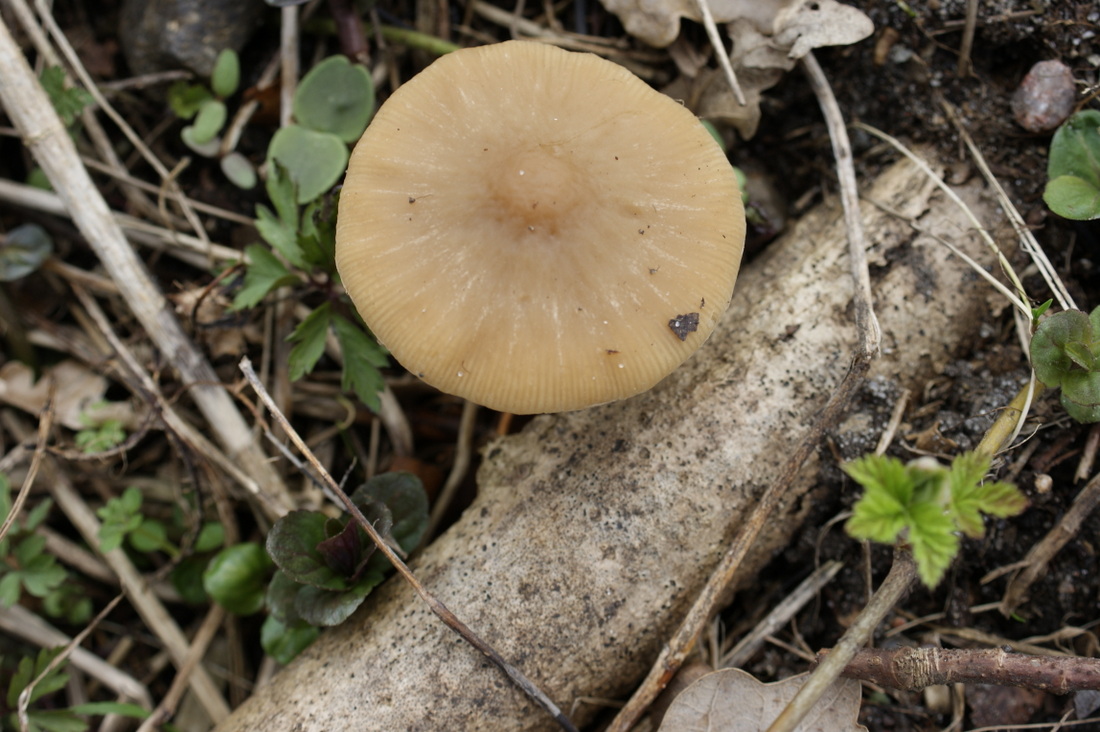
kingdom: Fungi
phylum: Basidiomycota
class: Agaricomycetes
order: Agaricales
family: Psathyrellaceae
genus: Psathyrella
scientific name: Psathyrella spadiceogrisea
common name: gråbrun mørkhat
